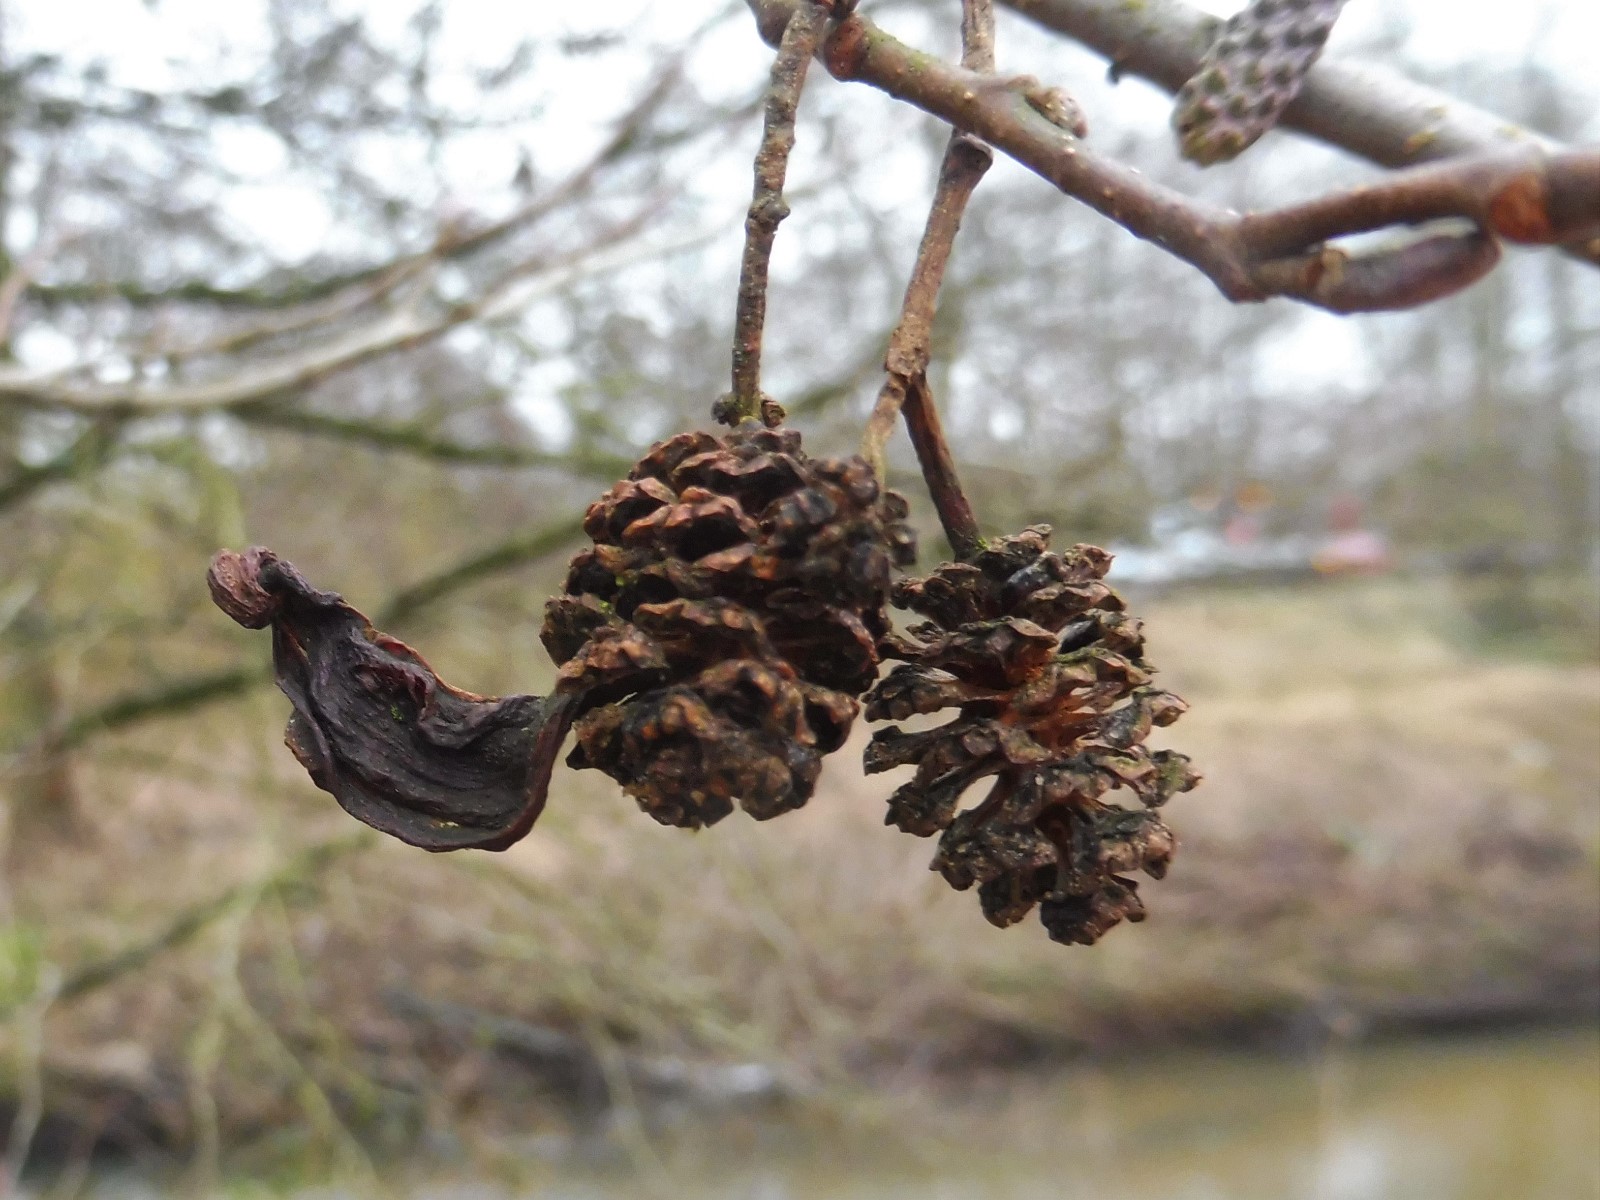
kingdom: Fungi
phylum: Ascomycota
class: Taphrinomycetes
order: Taphrinales
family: Taphrinaceae
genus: Taphrina
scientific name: Taphrina alni
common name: Alder tongue
